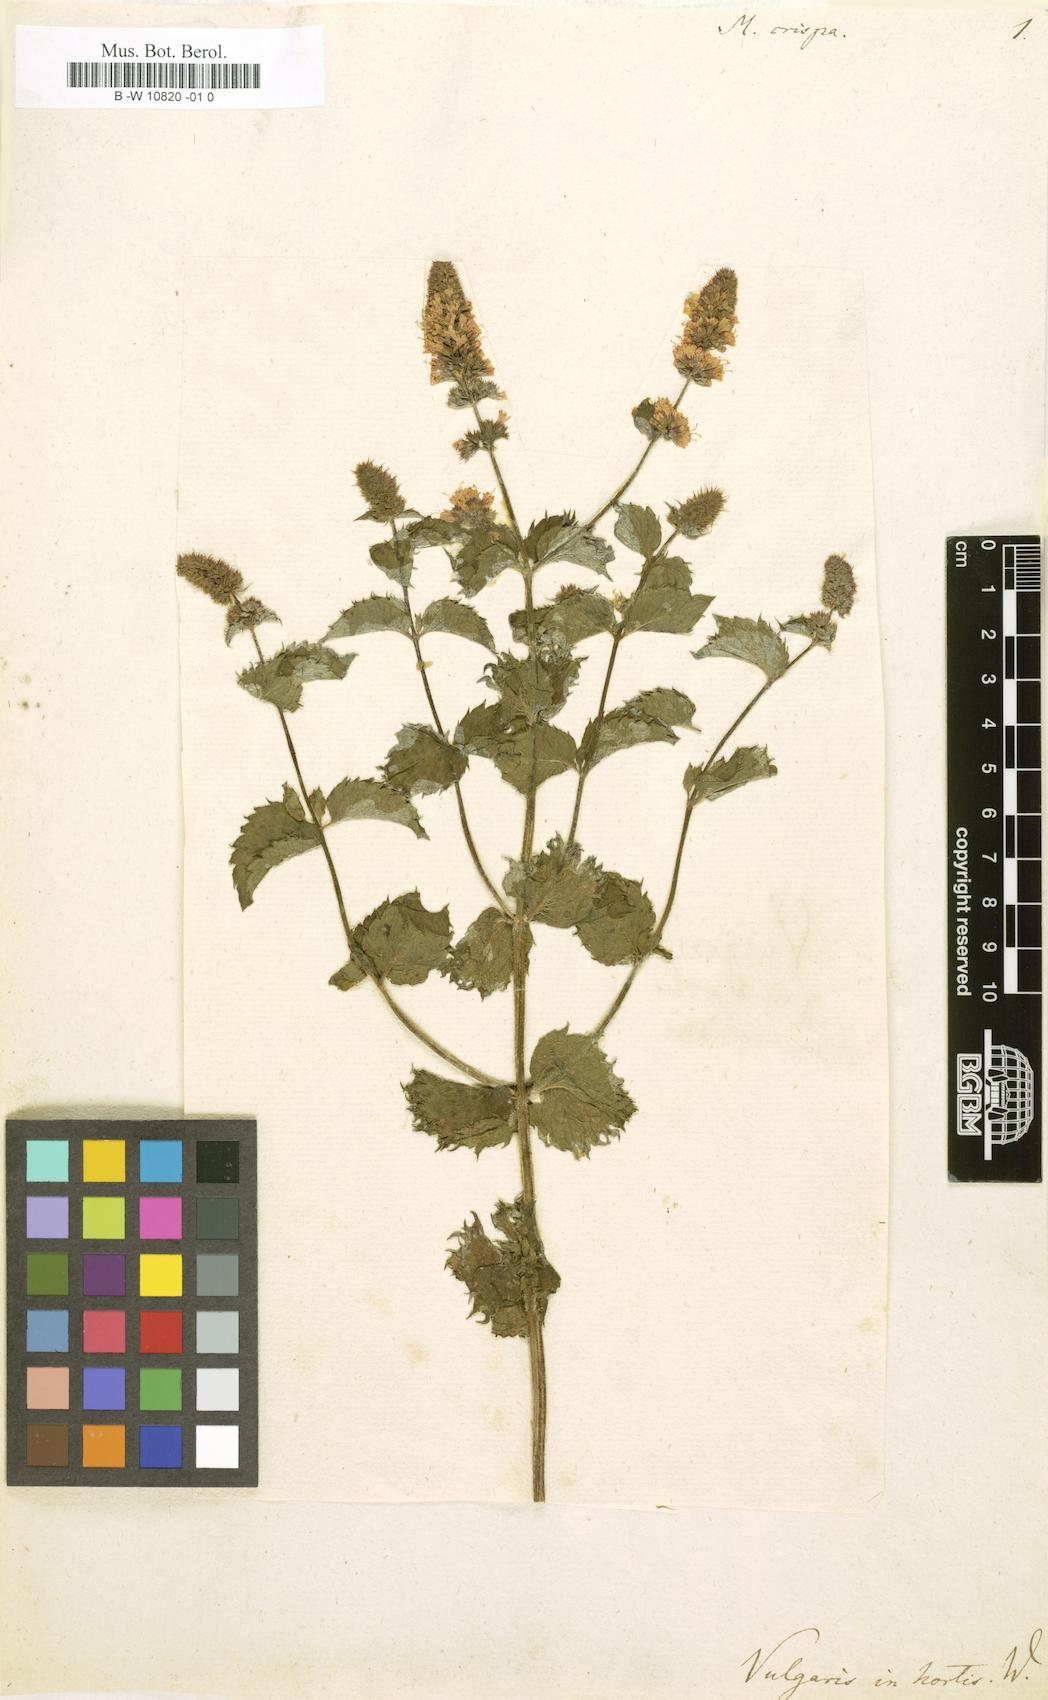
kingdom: Plantae
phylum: Tracheophyta
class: Magnoliopsida
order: Lamiales
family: Lamiaceae
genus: Mentha
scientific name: Mentha crispa
